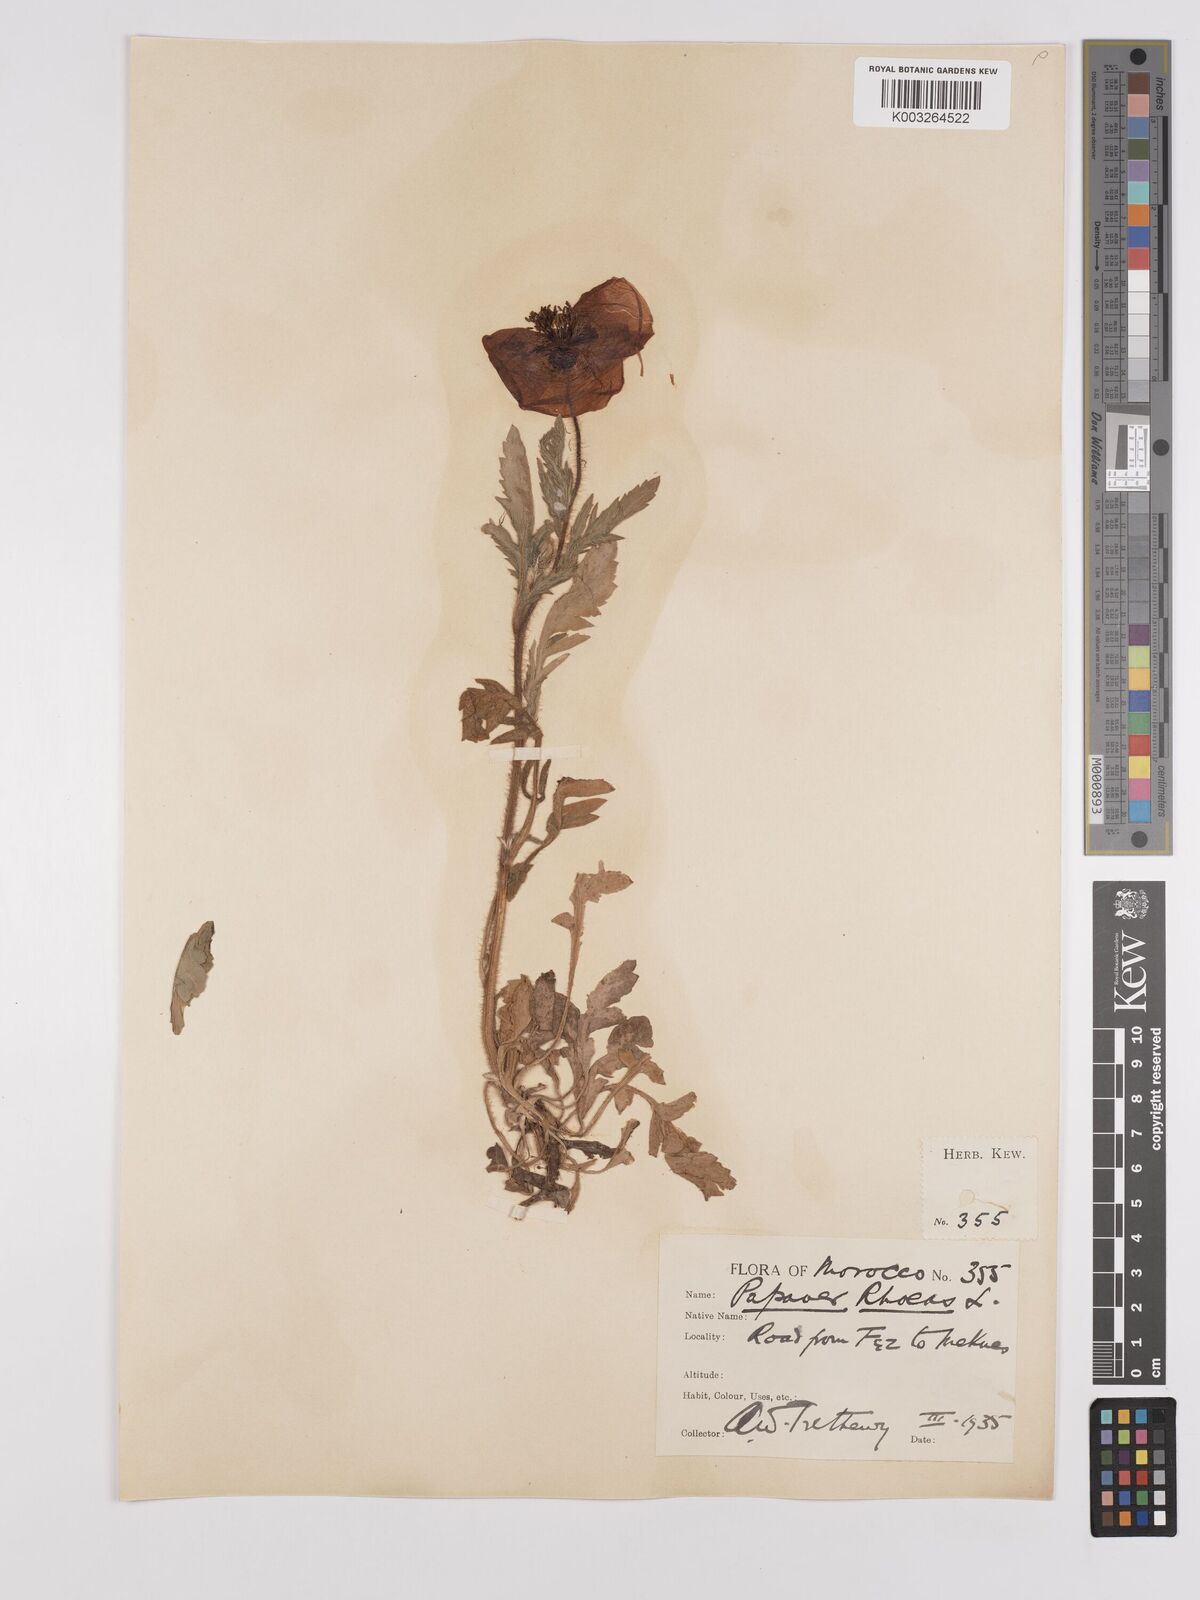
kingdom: Plantae
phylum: Tracheophyta
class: Magnoliopsida
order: Ranunculales
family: Papaveraceae
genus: Papaver
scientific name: Papaver rhoeas
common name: Corn poppy
